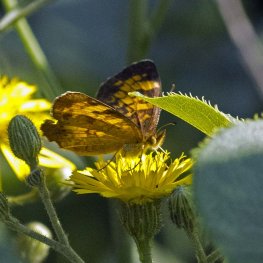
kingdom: Animalia
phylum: Arthropoda
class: Insecta
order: Lepidoptera
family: Nymphalidae
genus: Phyciodes
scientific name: Phyciodes tharos
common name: Northern Crescent
